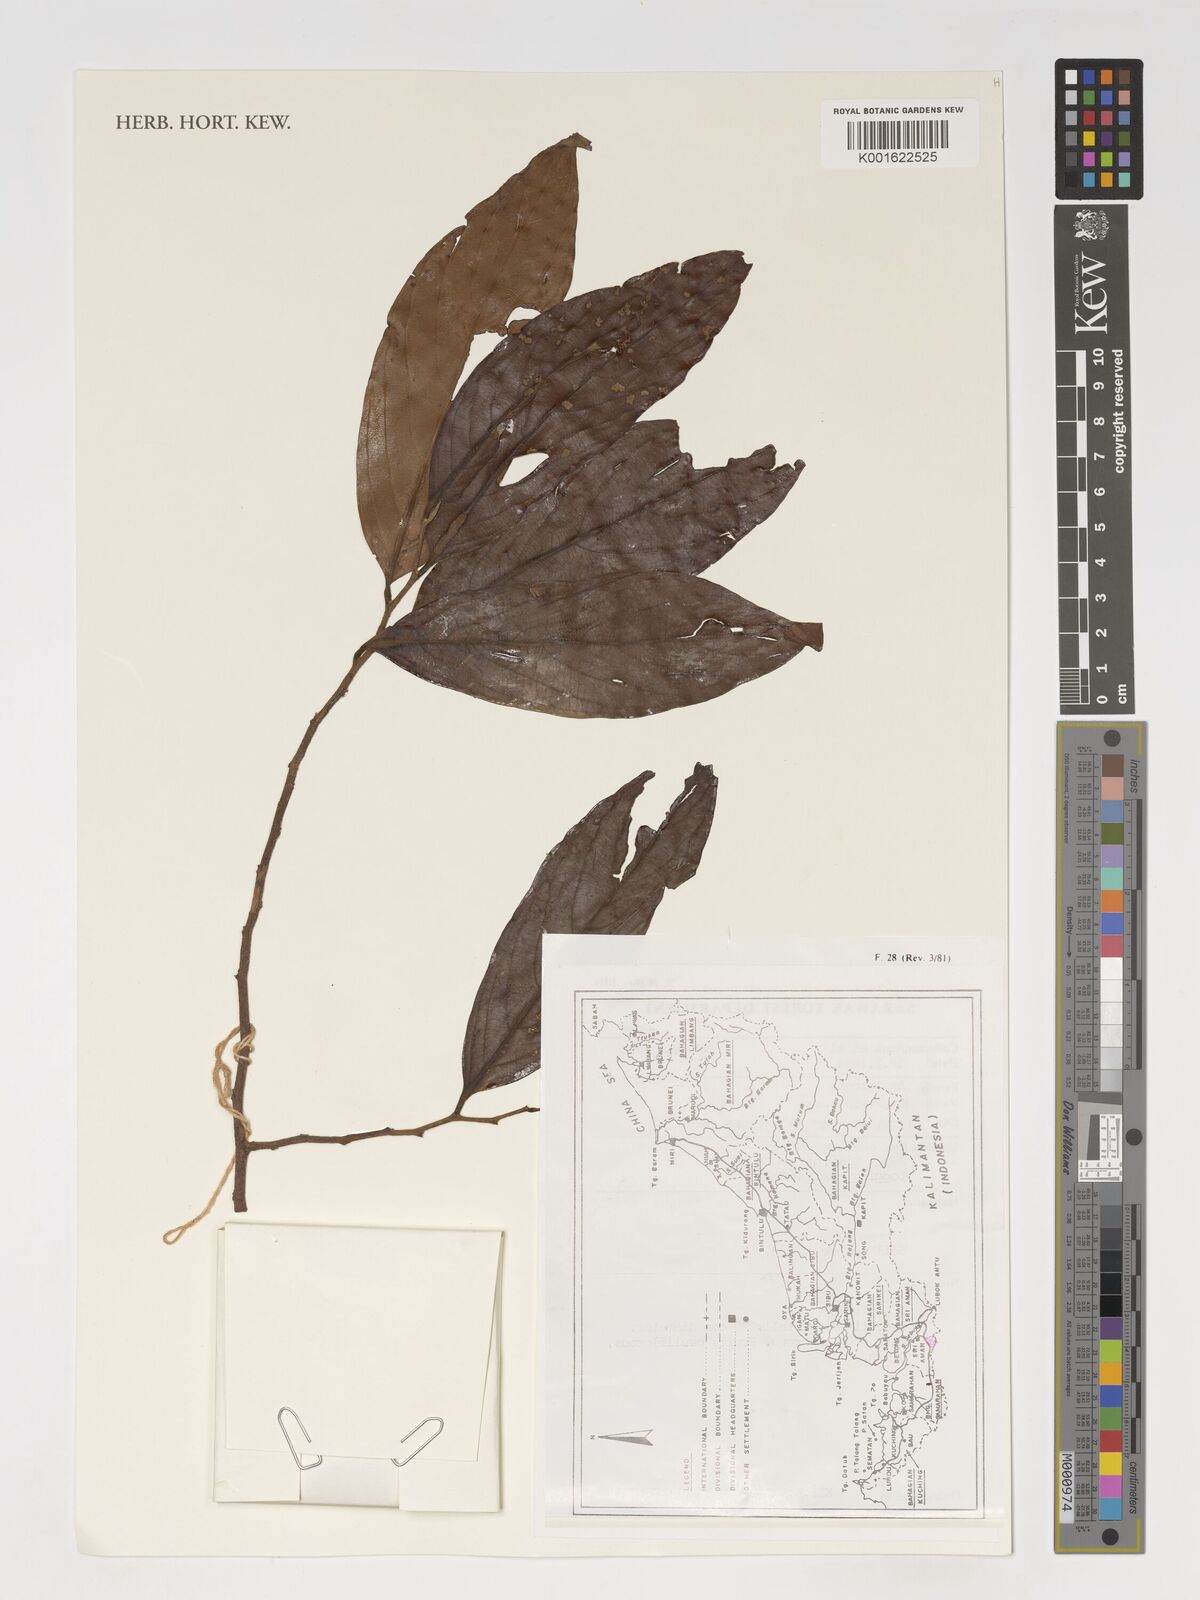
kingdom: Plantae
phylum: Tracheophyta
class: Magnoliopsida
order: Magnoliales
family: Annonaceae
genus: Monoon
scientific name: Monoon
